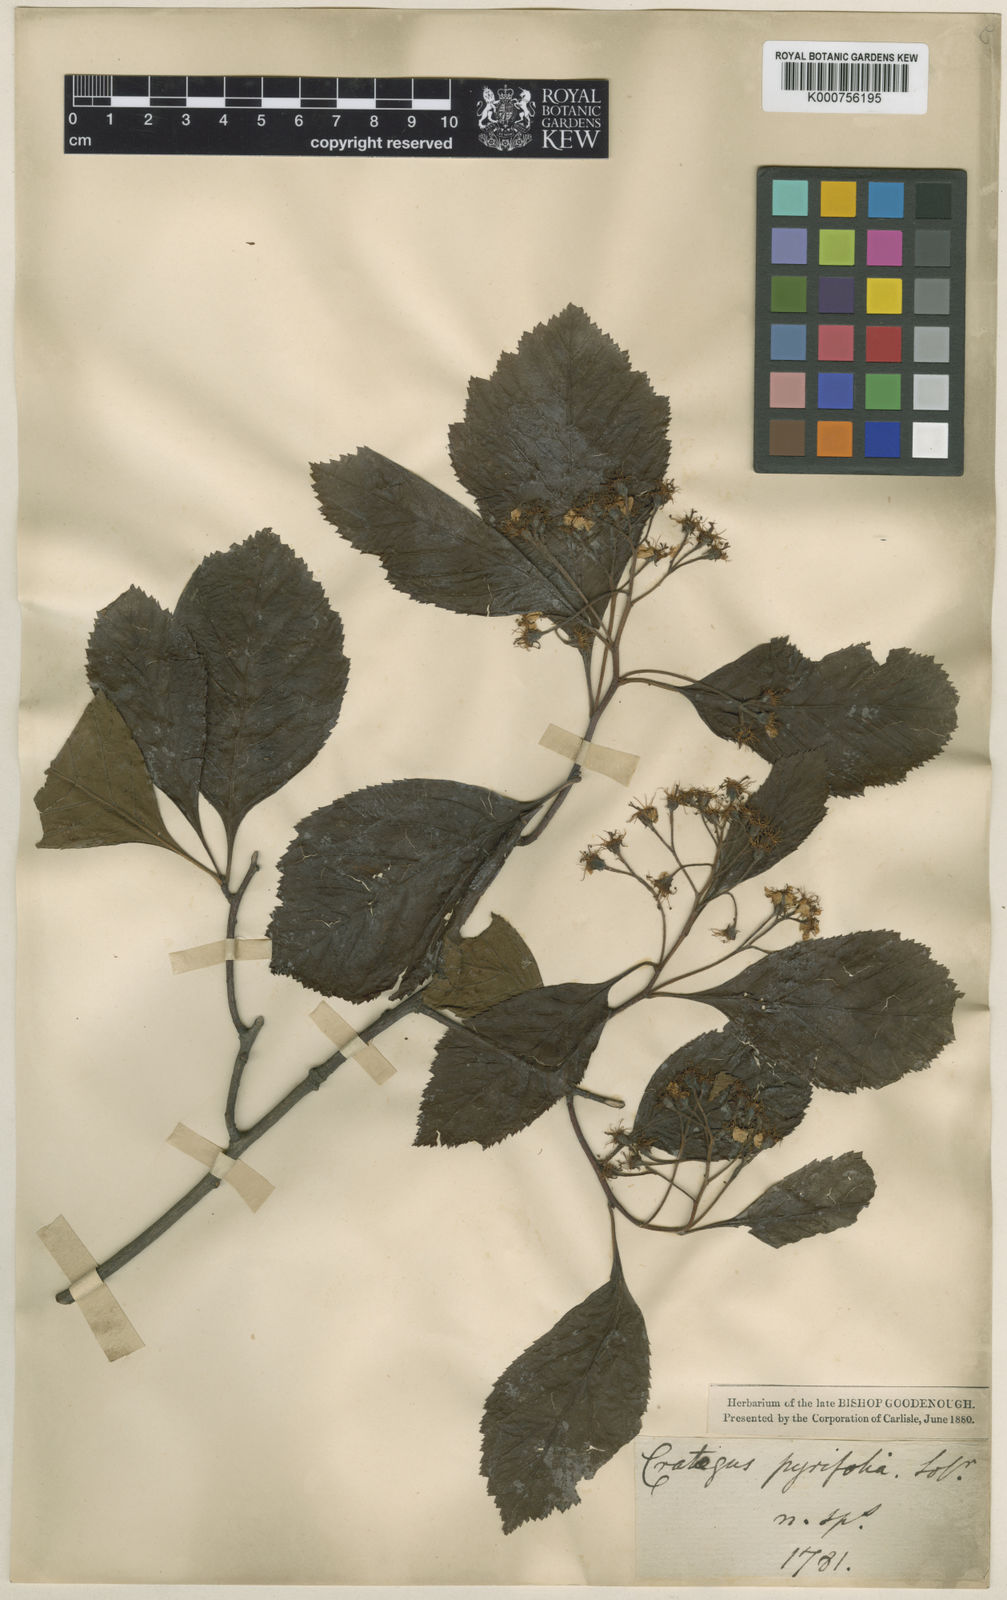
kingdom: Plantae
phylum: Tracheophyta
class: Magnoliopsida
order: Rosales
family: Rosaceae
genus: Crataegus
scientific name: Crataegus calpodendron
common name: Pear hawthorn
